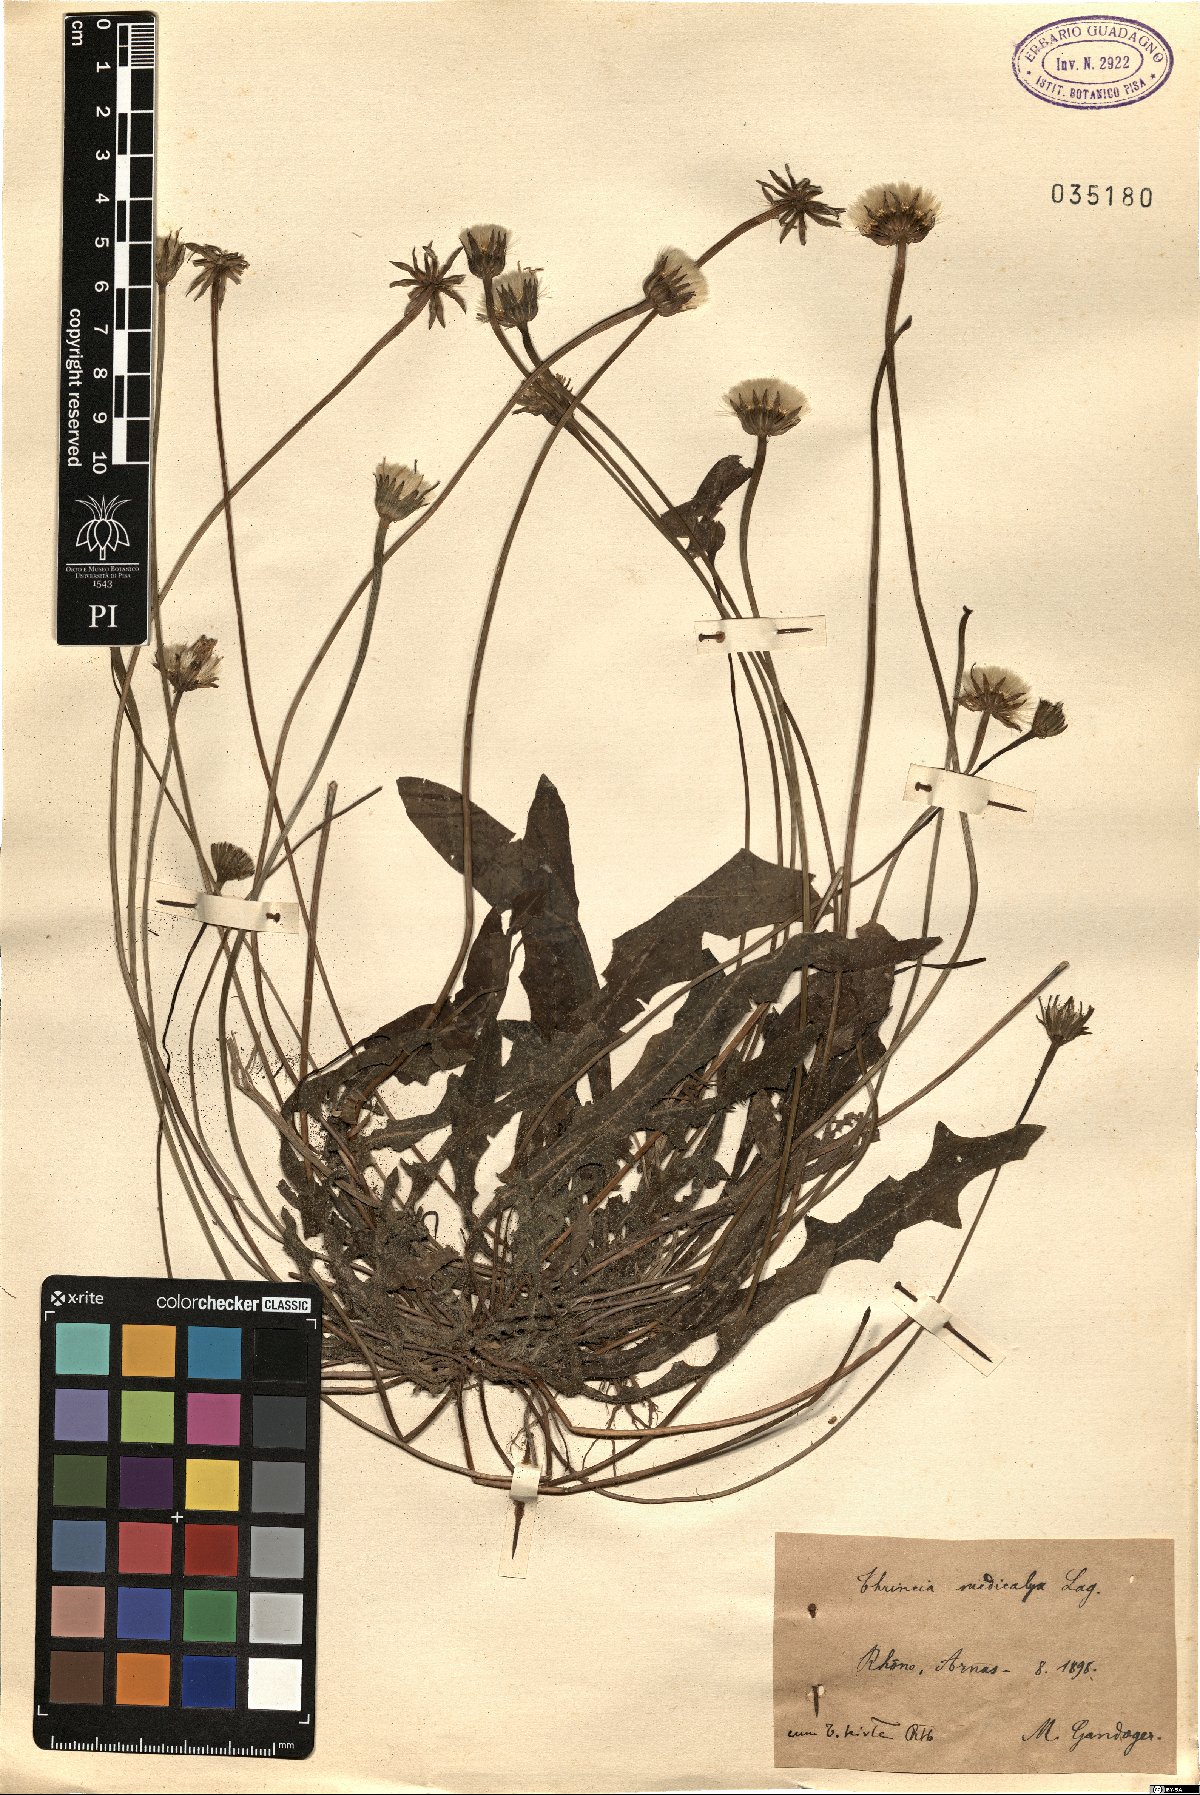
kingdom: Plantae
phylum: Tracheophyta
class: Magnoliopsida
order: Asterales
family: Asteraceae
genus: Thrincia
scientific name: Thrincia saxatilis
